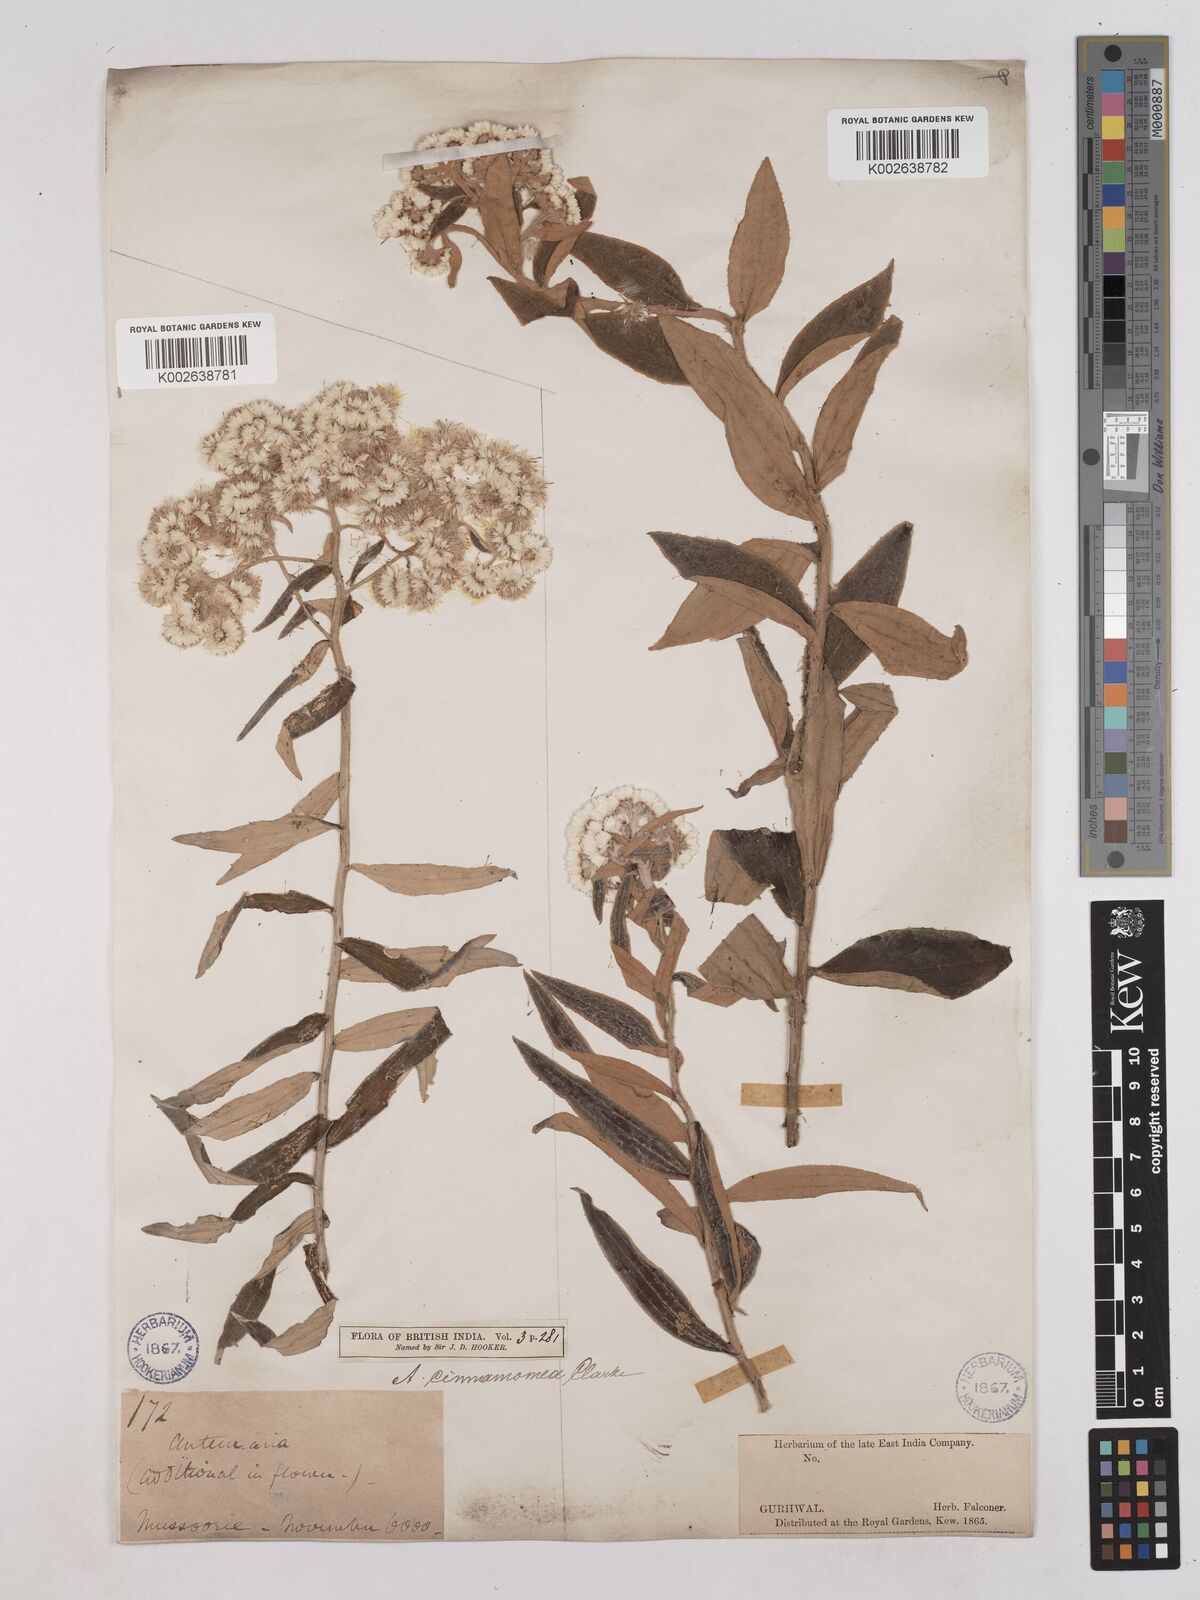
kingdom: Plantae
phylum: Tracheophyta
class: Magnoliopsida
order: Asterales
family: Asteraceae
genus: Anaphalis
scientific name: Anaphalis marcescens
